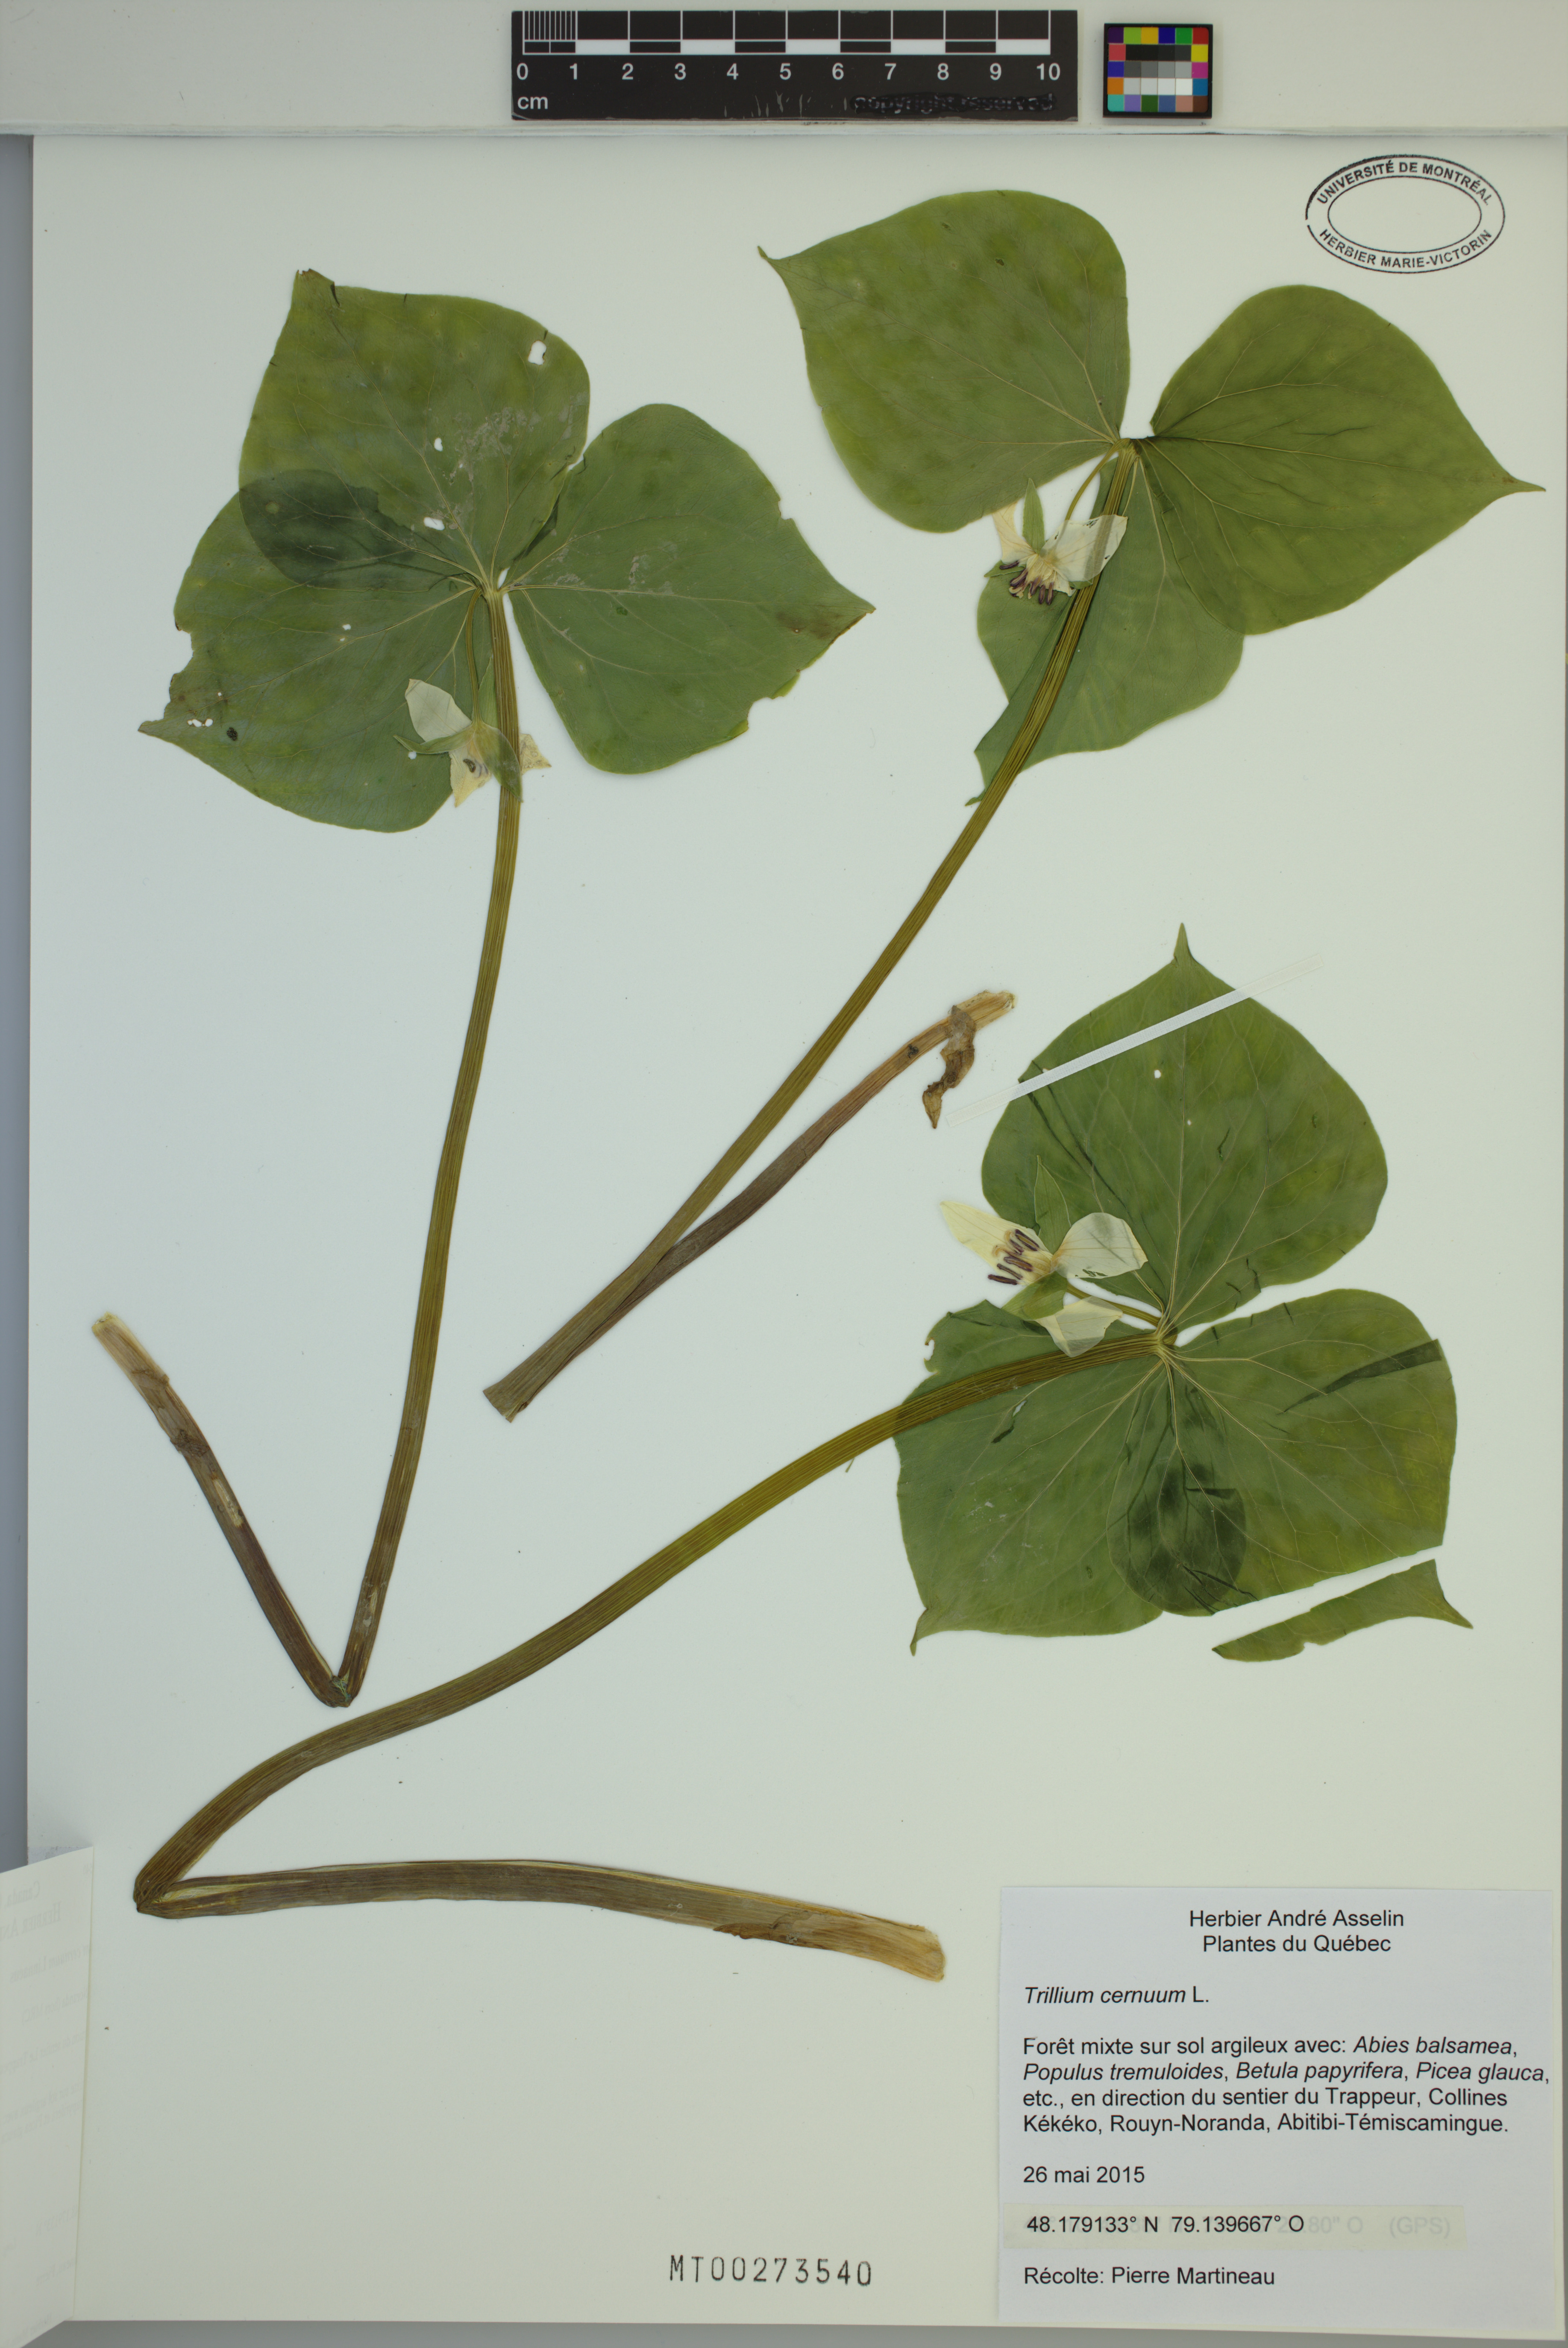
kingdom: Plantae
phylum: Tracheophyta
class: Liliopsida
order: Liliales
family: Melanthiaceae
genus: Trillium
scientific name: Trillium cernuum
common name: Nodding trillium
